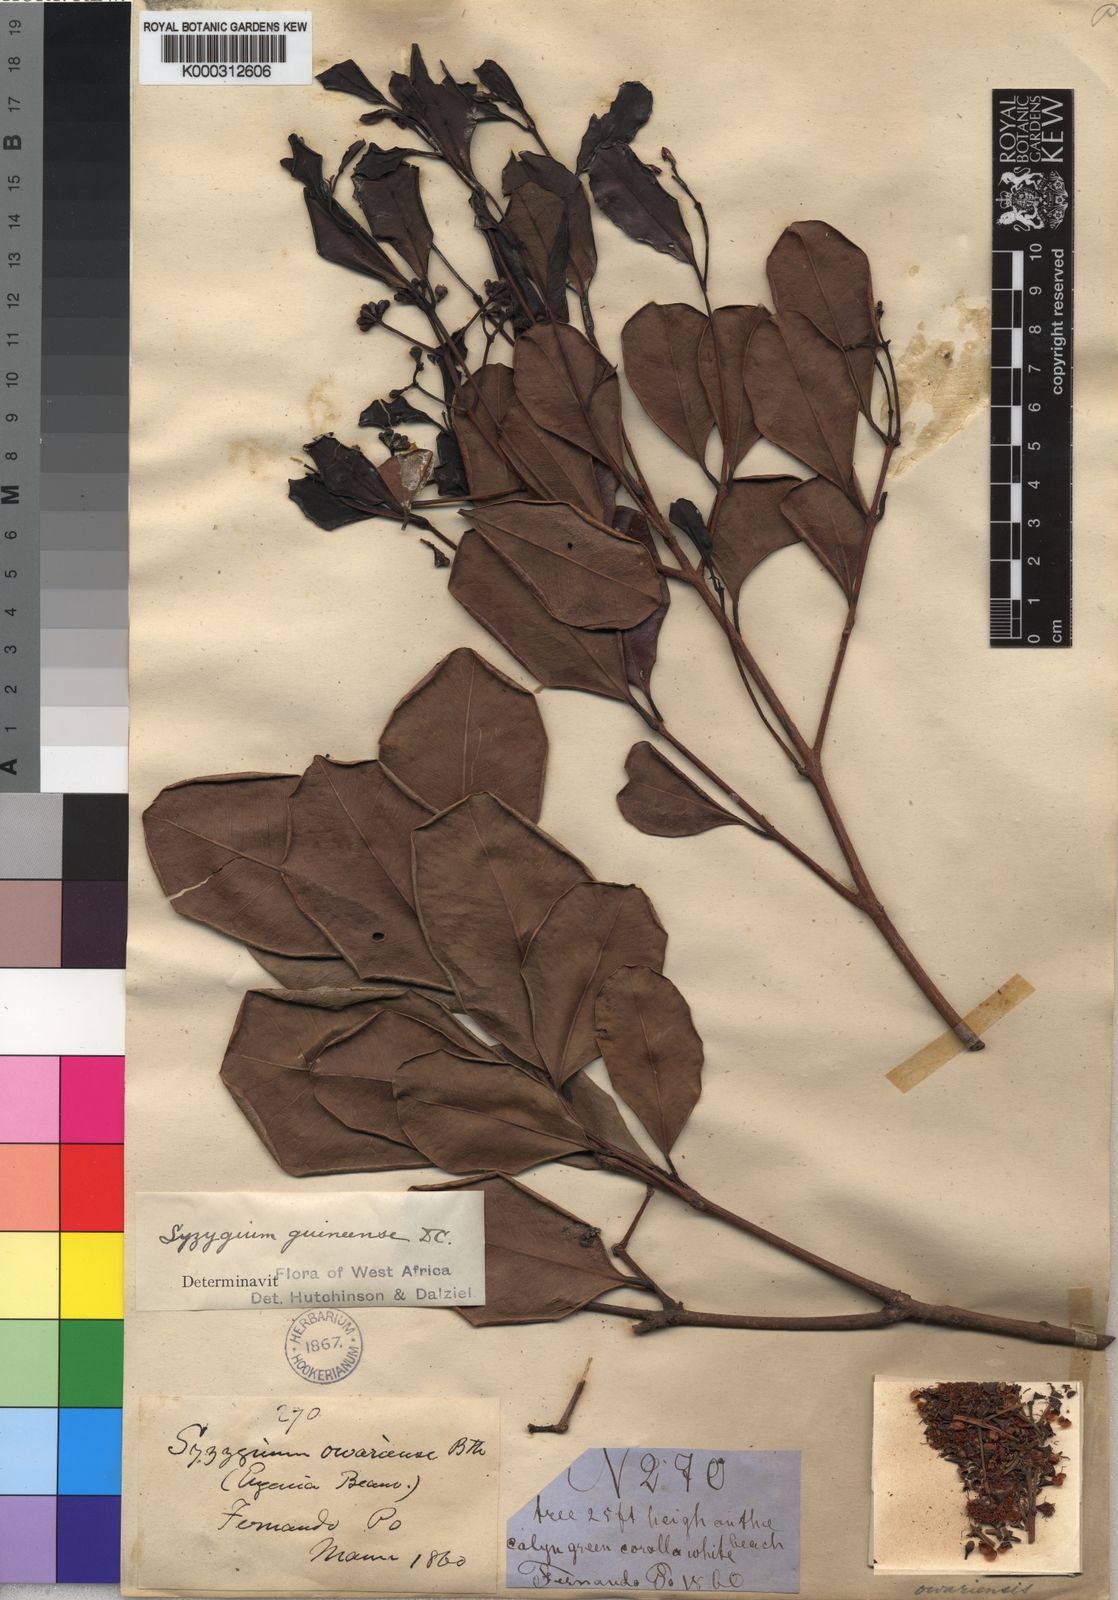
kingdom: Plantae
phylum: Tracheophyta
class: Magnoliopsida
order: Myrtales
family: Myrtaceae
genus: Syzygium
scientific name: Syzygium
